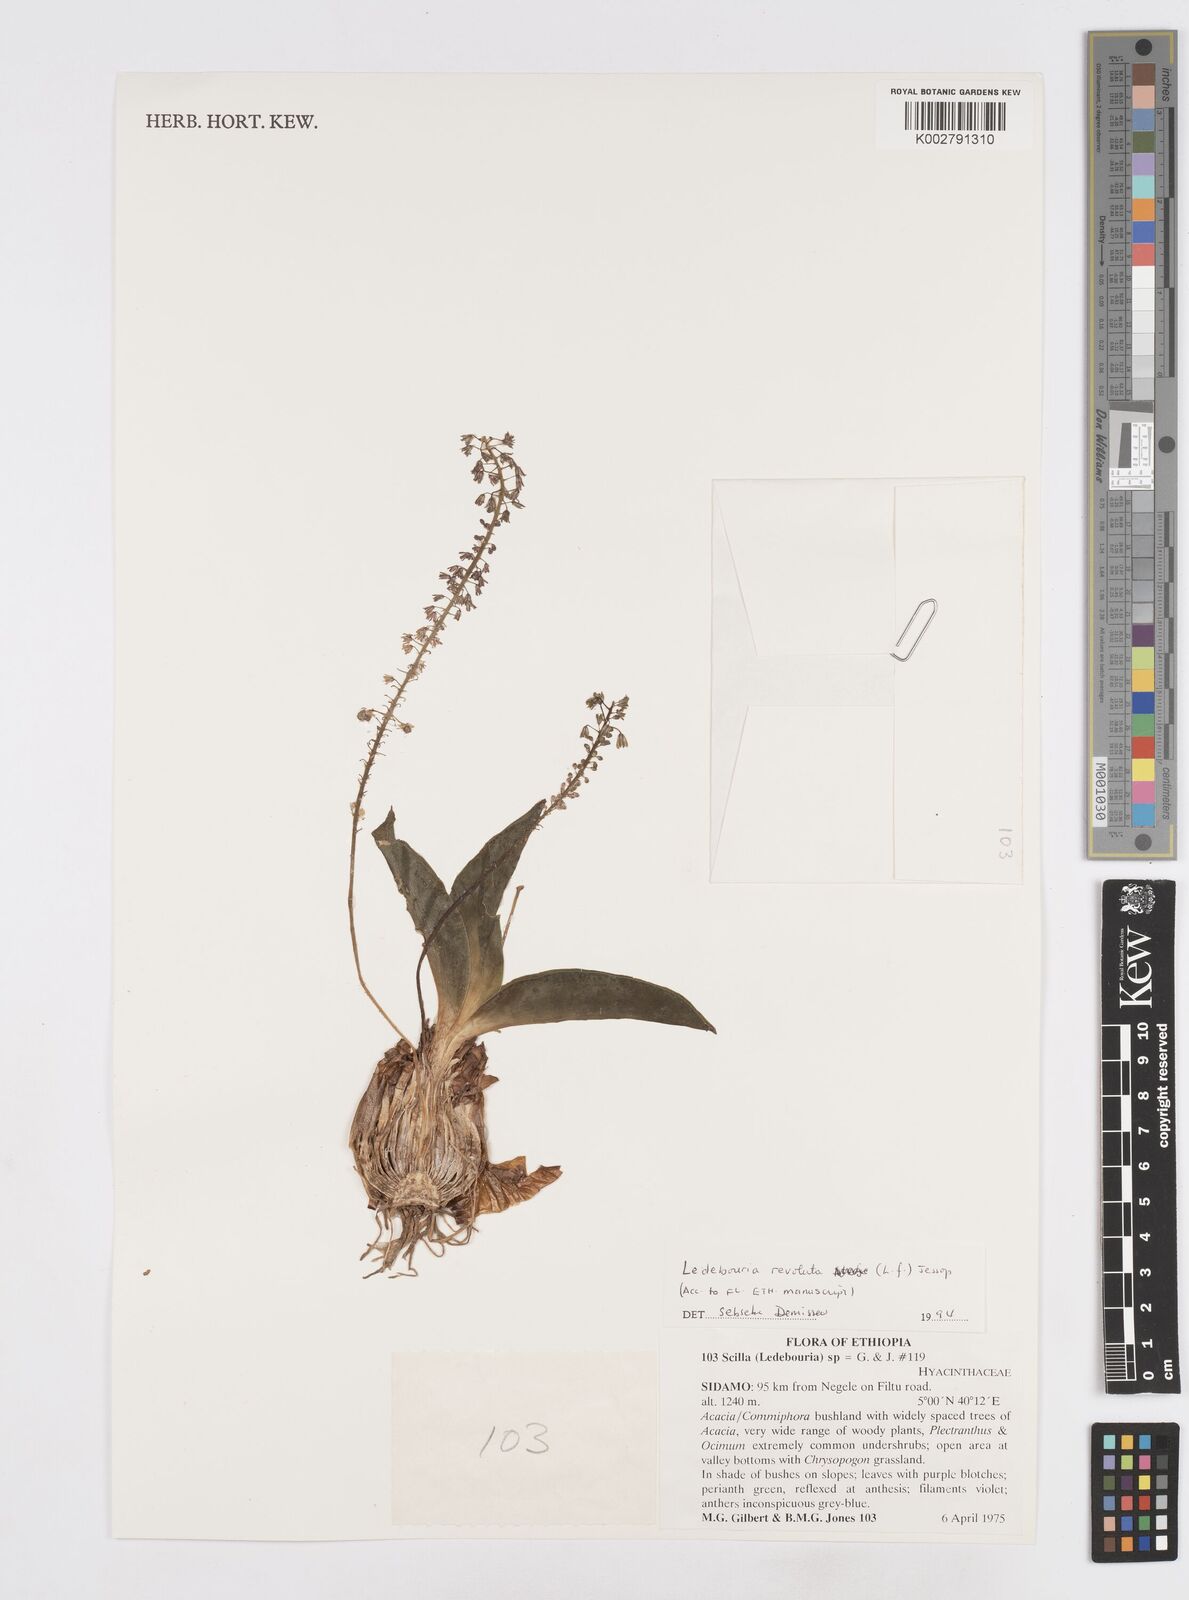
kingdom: Plantae
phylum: Tracheophyta
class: Liliopsida
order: Asparagales
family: Asparagaceae
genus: Scilla
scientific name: Scilla
